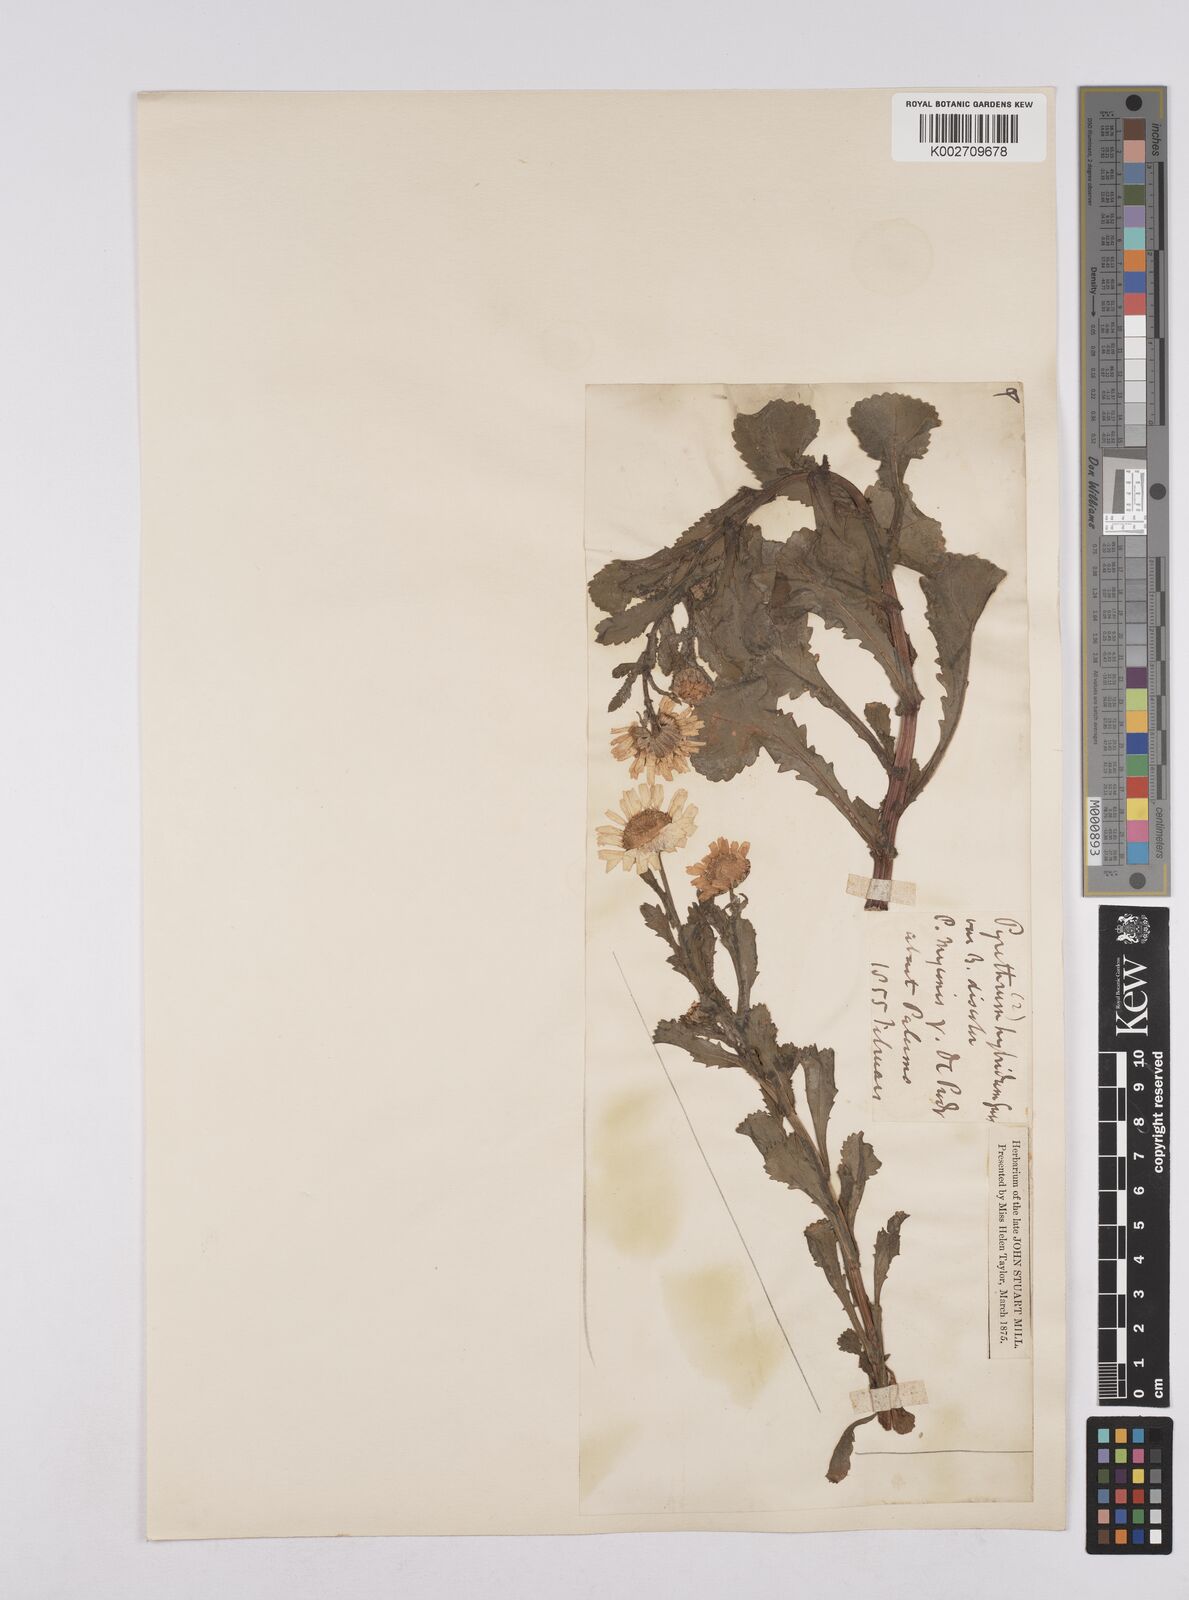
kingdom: Plantae
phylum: Tracheophyta
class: Magnoliopsida
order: Asterales
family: Asteraceae
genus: Coleostephus
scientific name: Coleostephus paludosus
